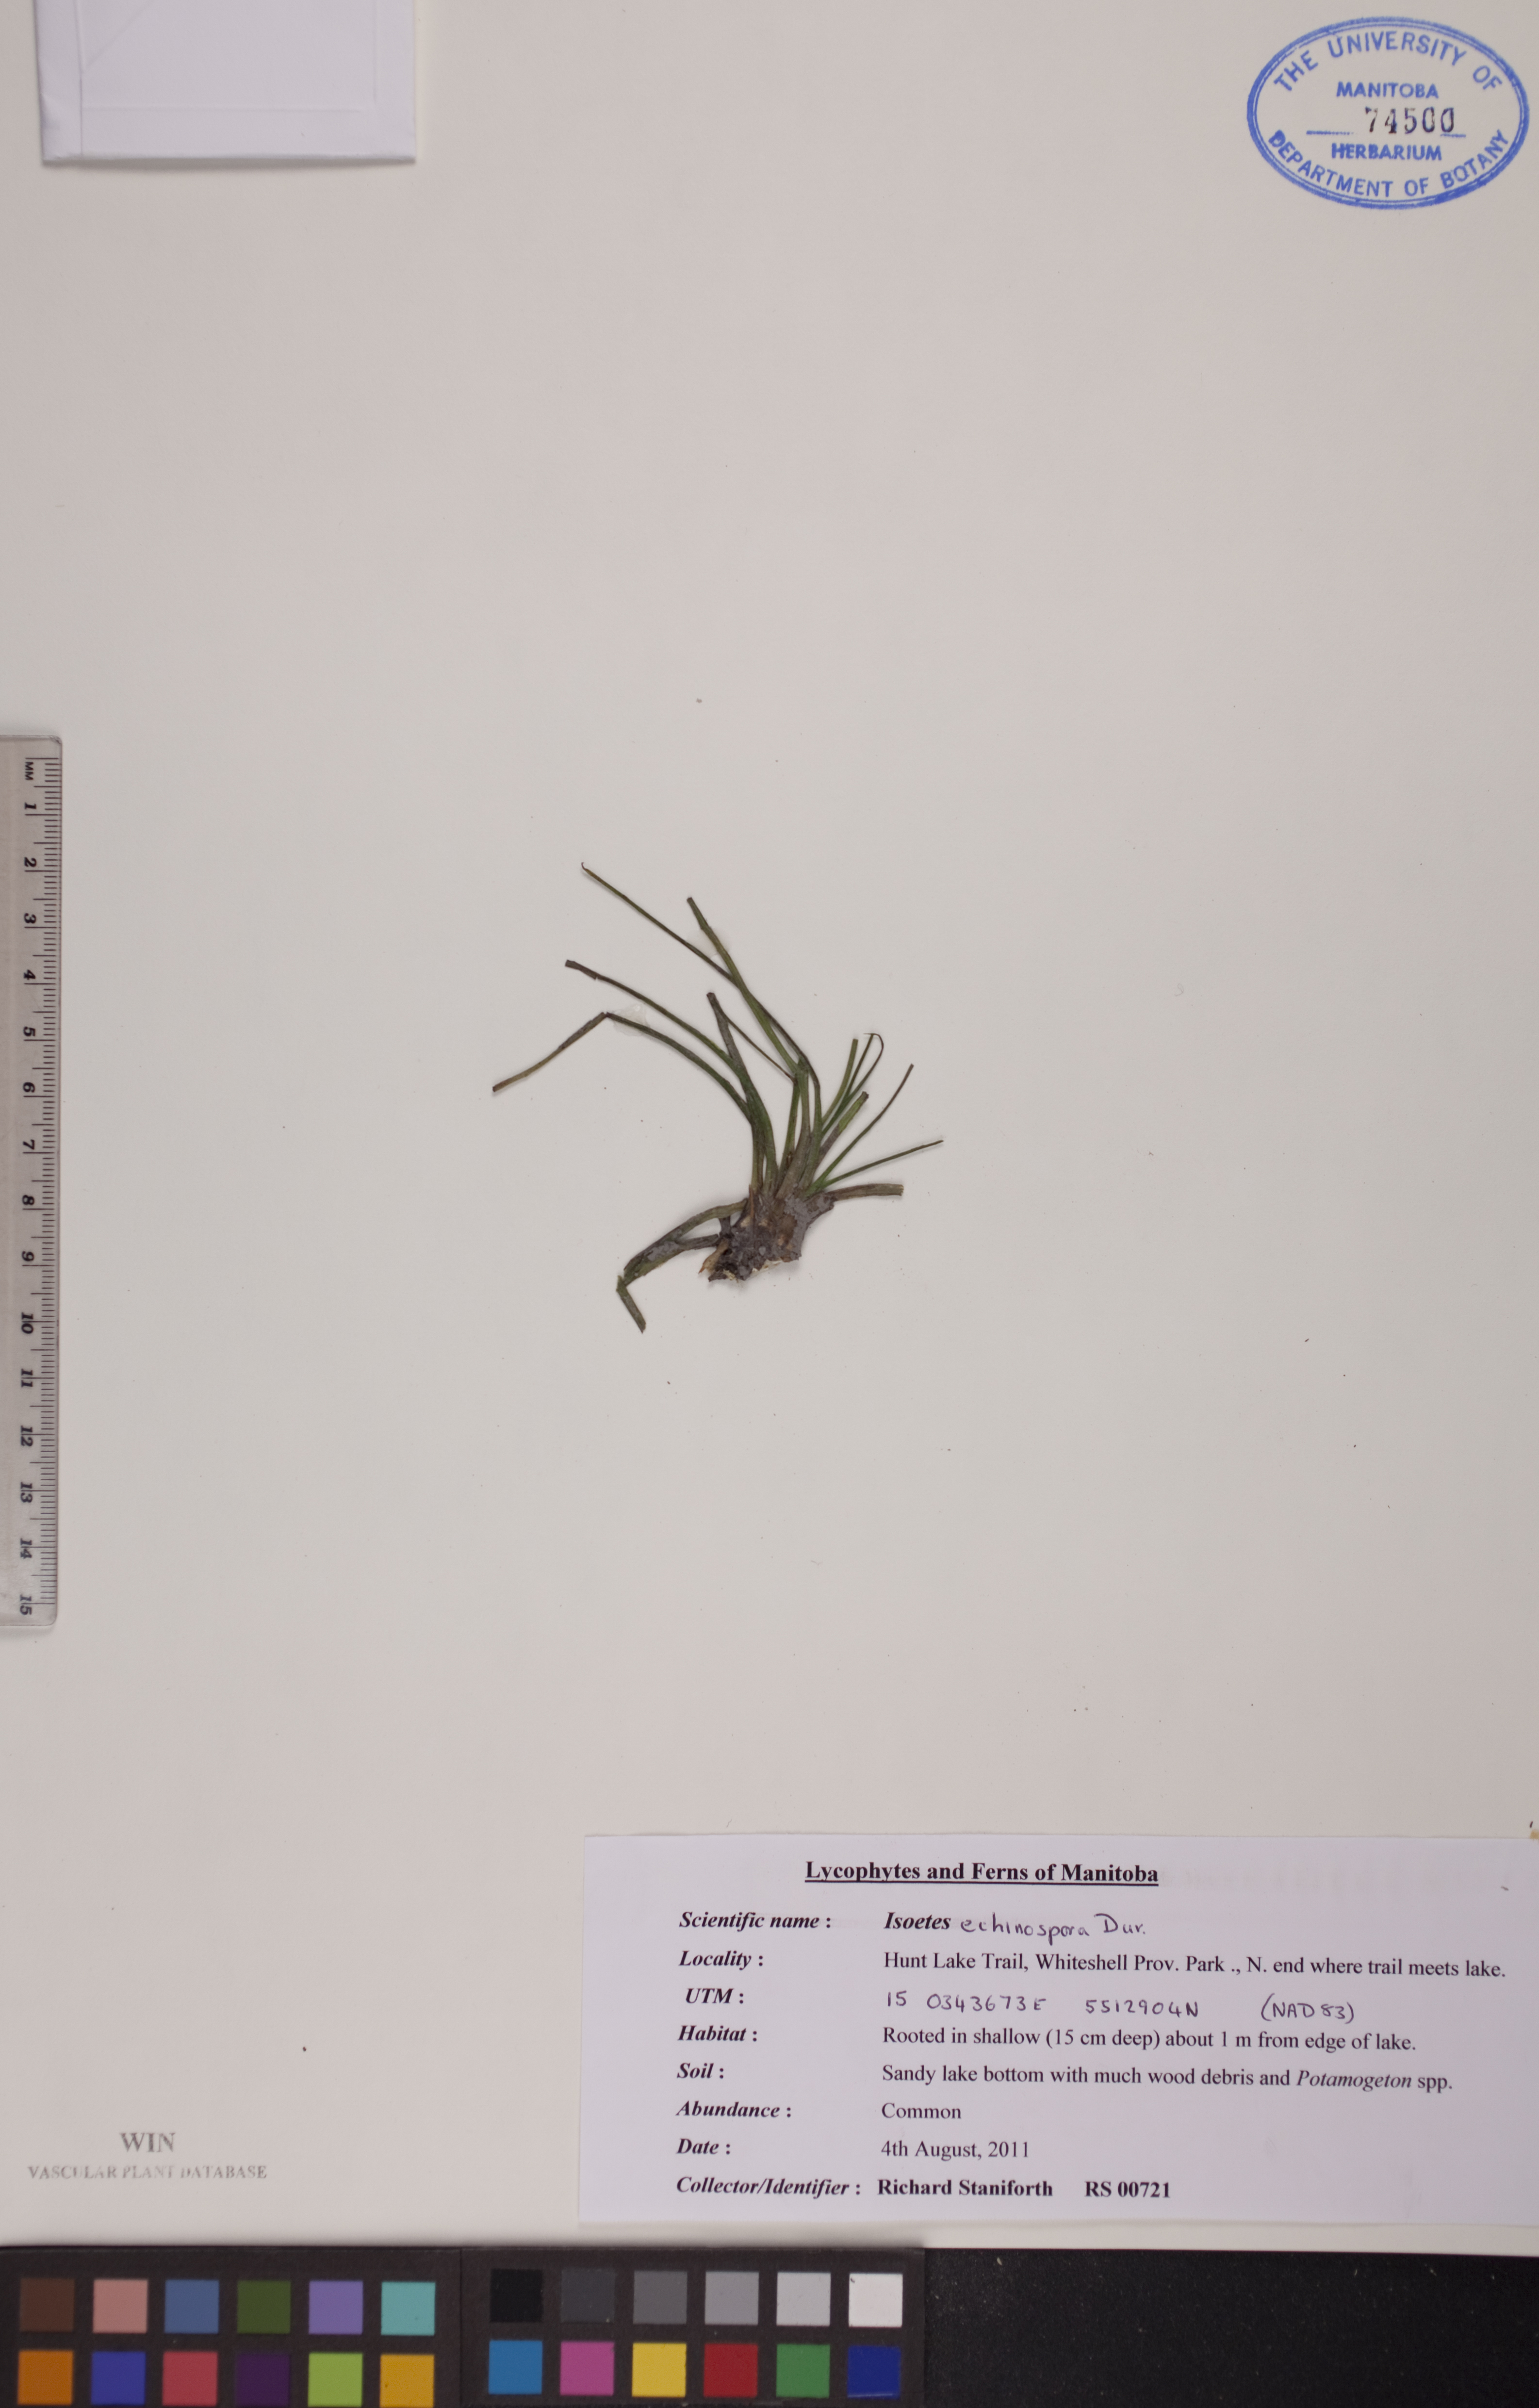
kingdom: Plantae
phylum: Tracheophyta
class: Lycopodiopsida
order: Isoetales
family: Isoetaceae
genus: Isoetes
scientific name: Isoetes echinospora
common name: Spring quillwort
